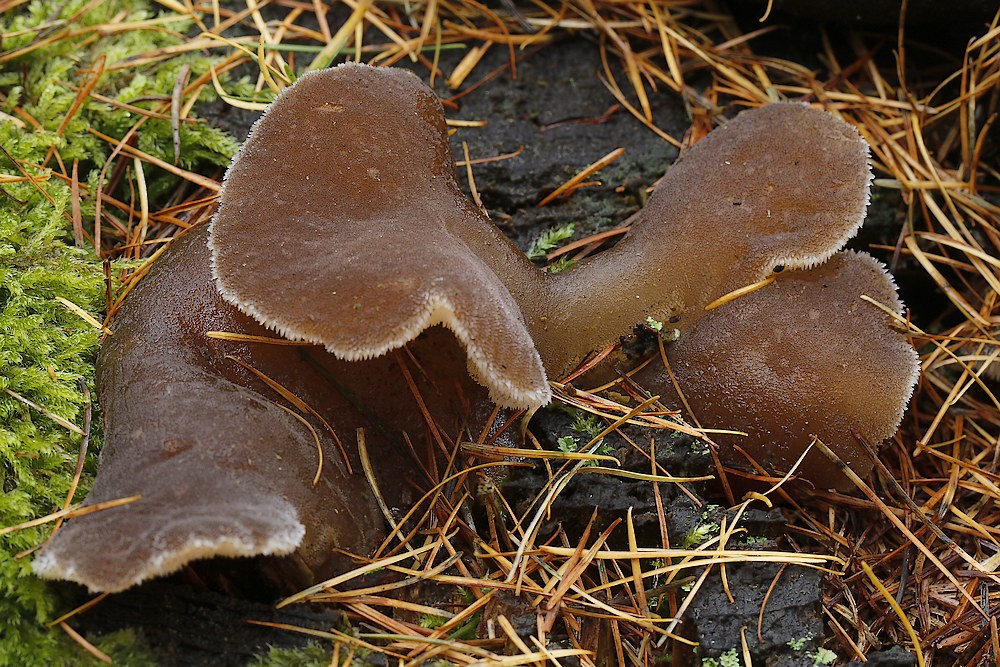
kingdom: Fungi
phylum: Basidiomycota
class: Agaricomycetes
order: Auriculariales
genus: Pseudohydnum
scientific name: Pseudohydnum gelatinosum
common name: bævretand
